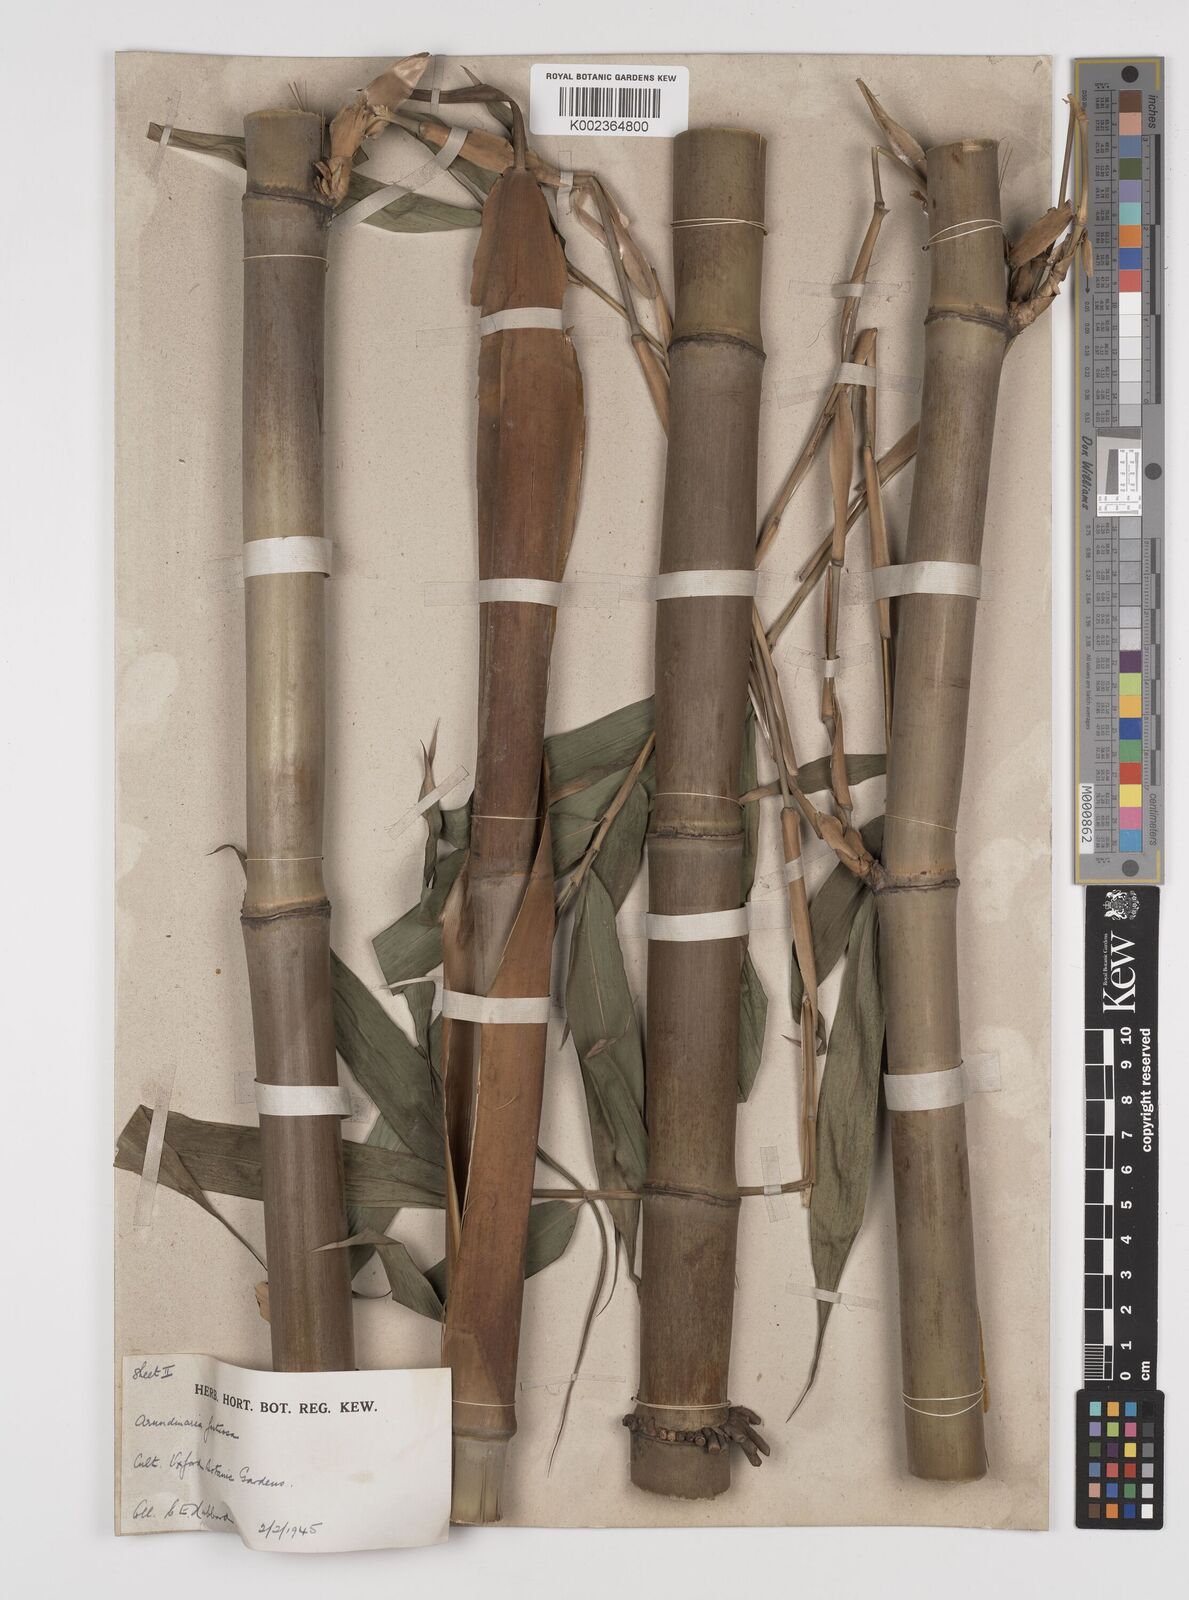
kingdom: Plantae
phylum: Tracheophyta
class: Liliopsida
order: Poales
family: Poaceae
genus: Semiarundinaria
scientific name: Semiarundinaria
